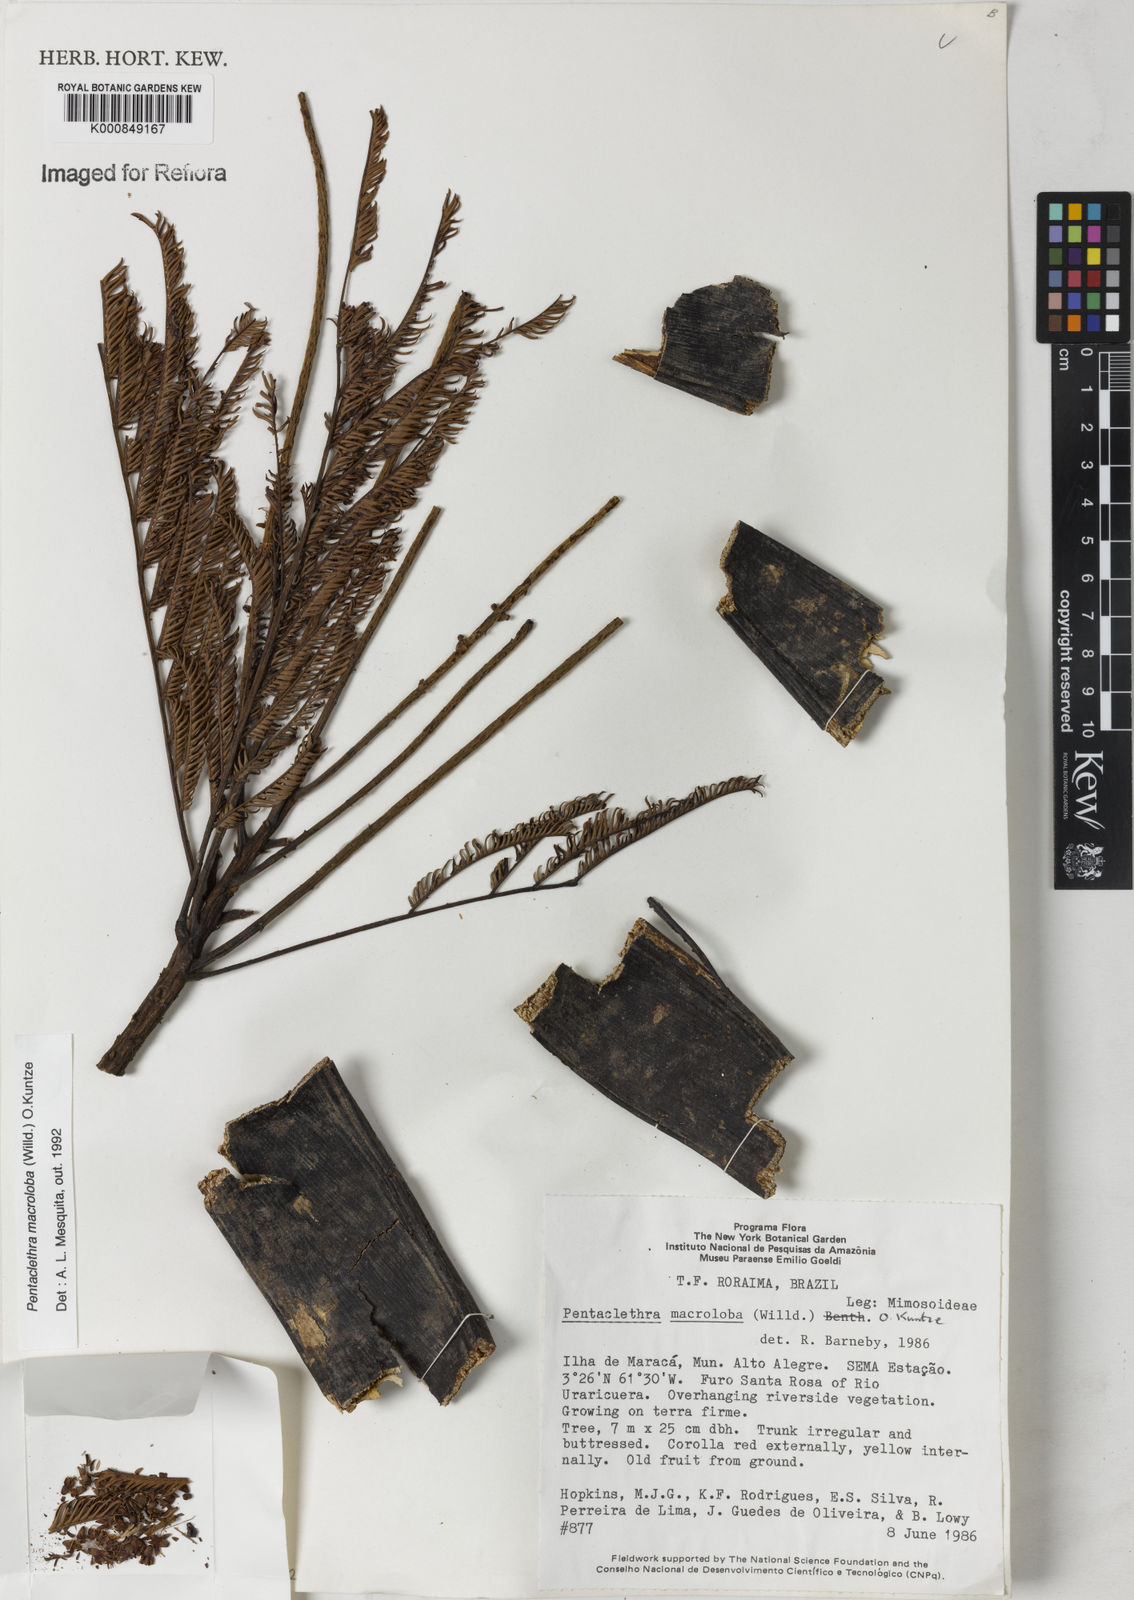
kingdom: Plantae
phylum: Tracheophyta
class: Magnoliopsida
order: Fabales
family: Fabaceae
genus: Pentaclethra
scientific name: Pentaclethra macroloba
